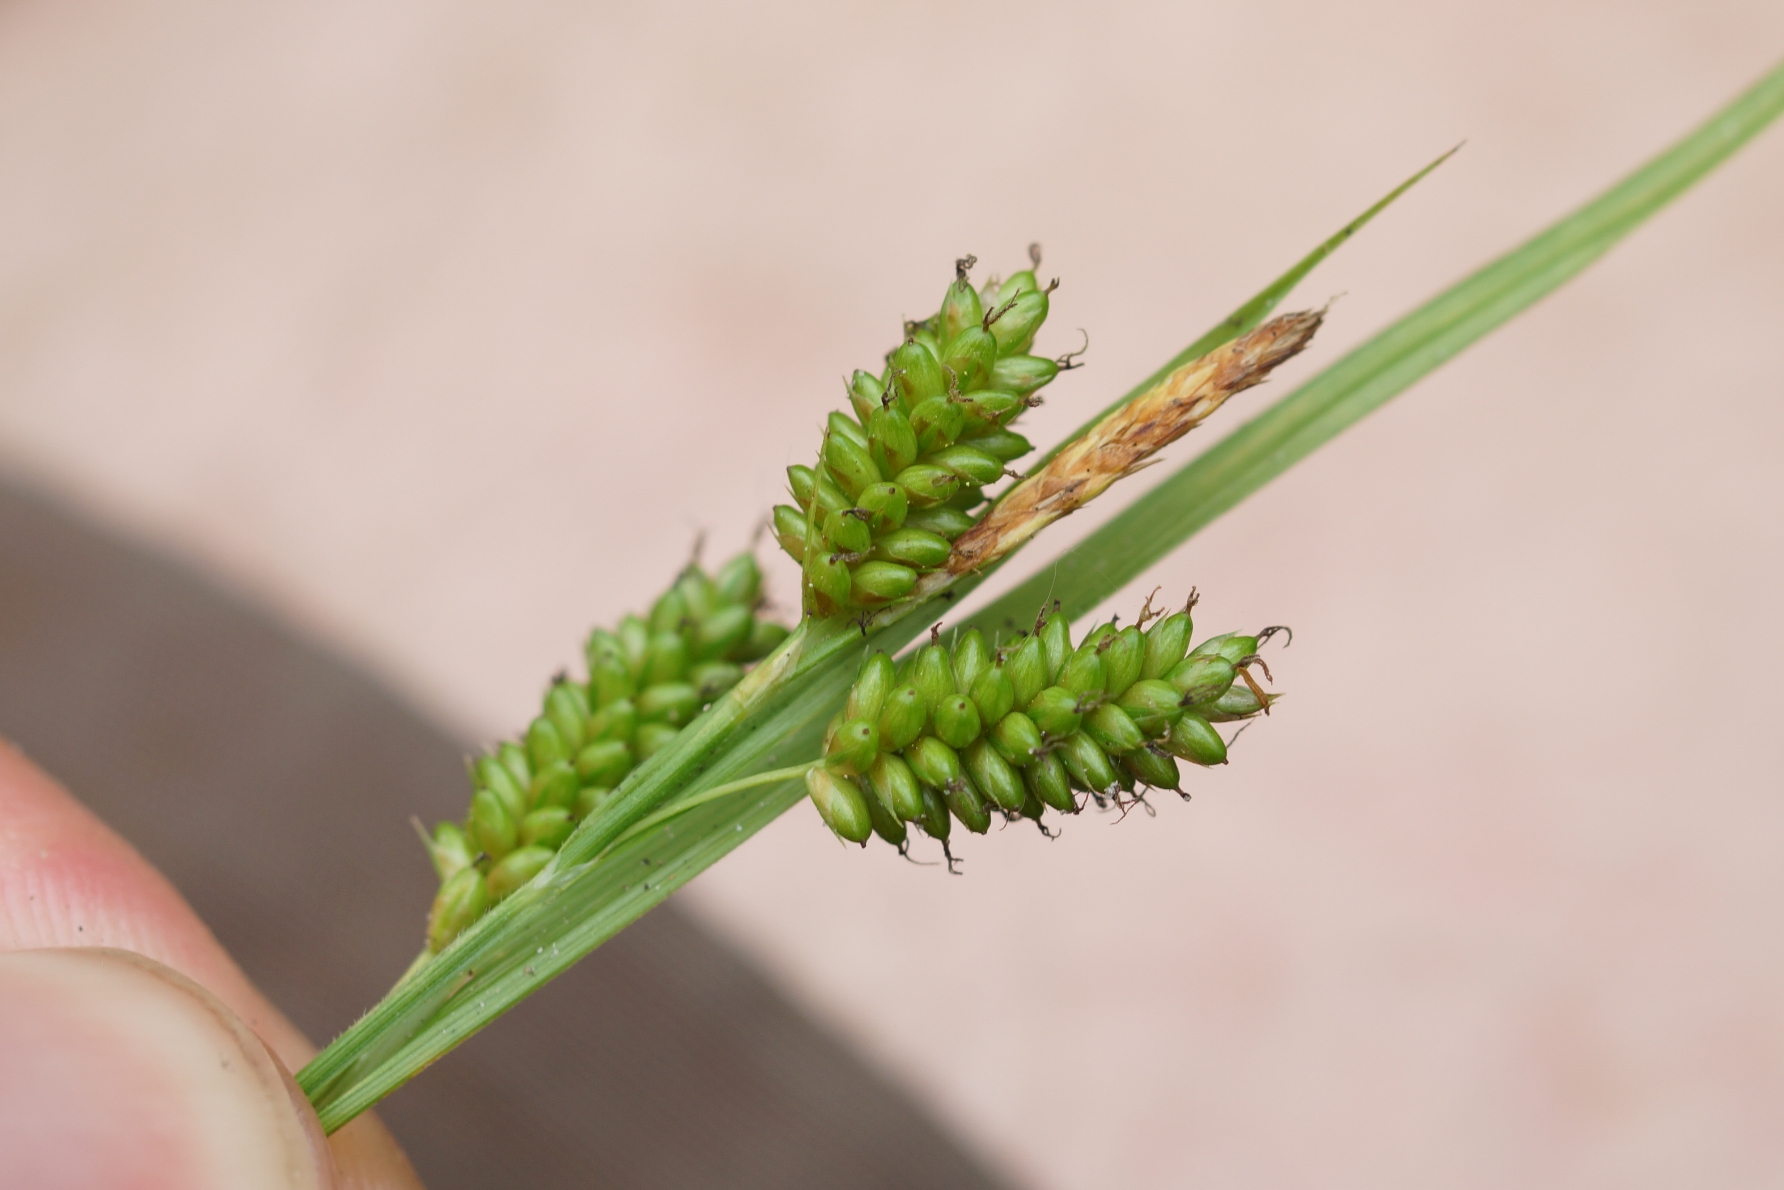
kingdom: Plantae
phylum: Tracheophyta
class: Liliopsida
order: Poales
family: Cyperaceae
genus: Carex
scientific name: Carex pallescens
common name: Bleg star
